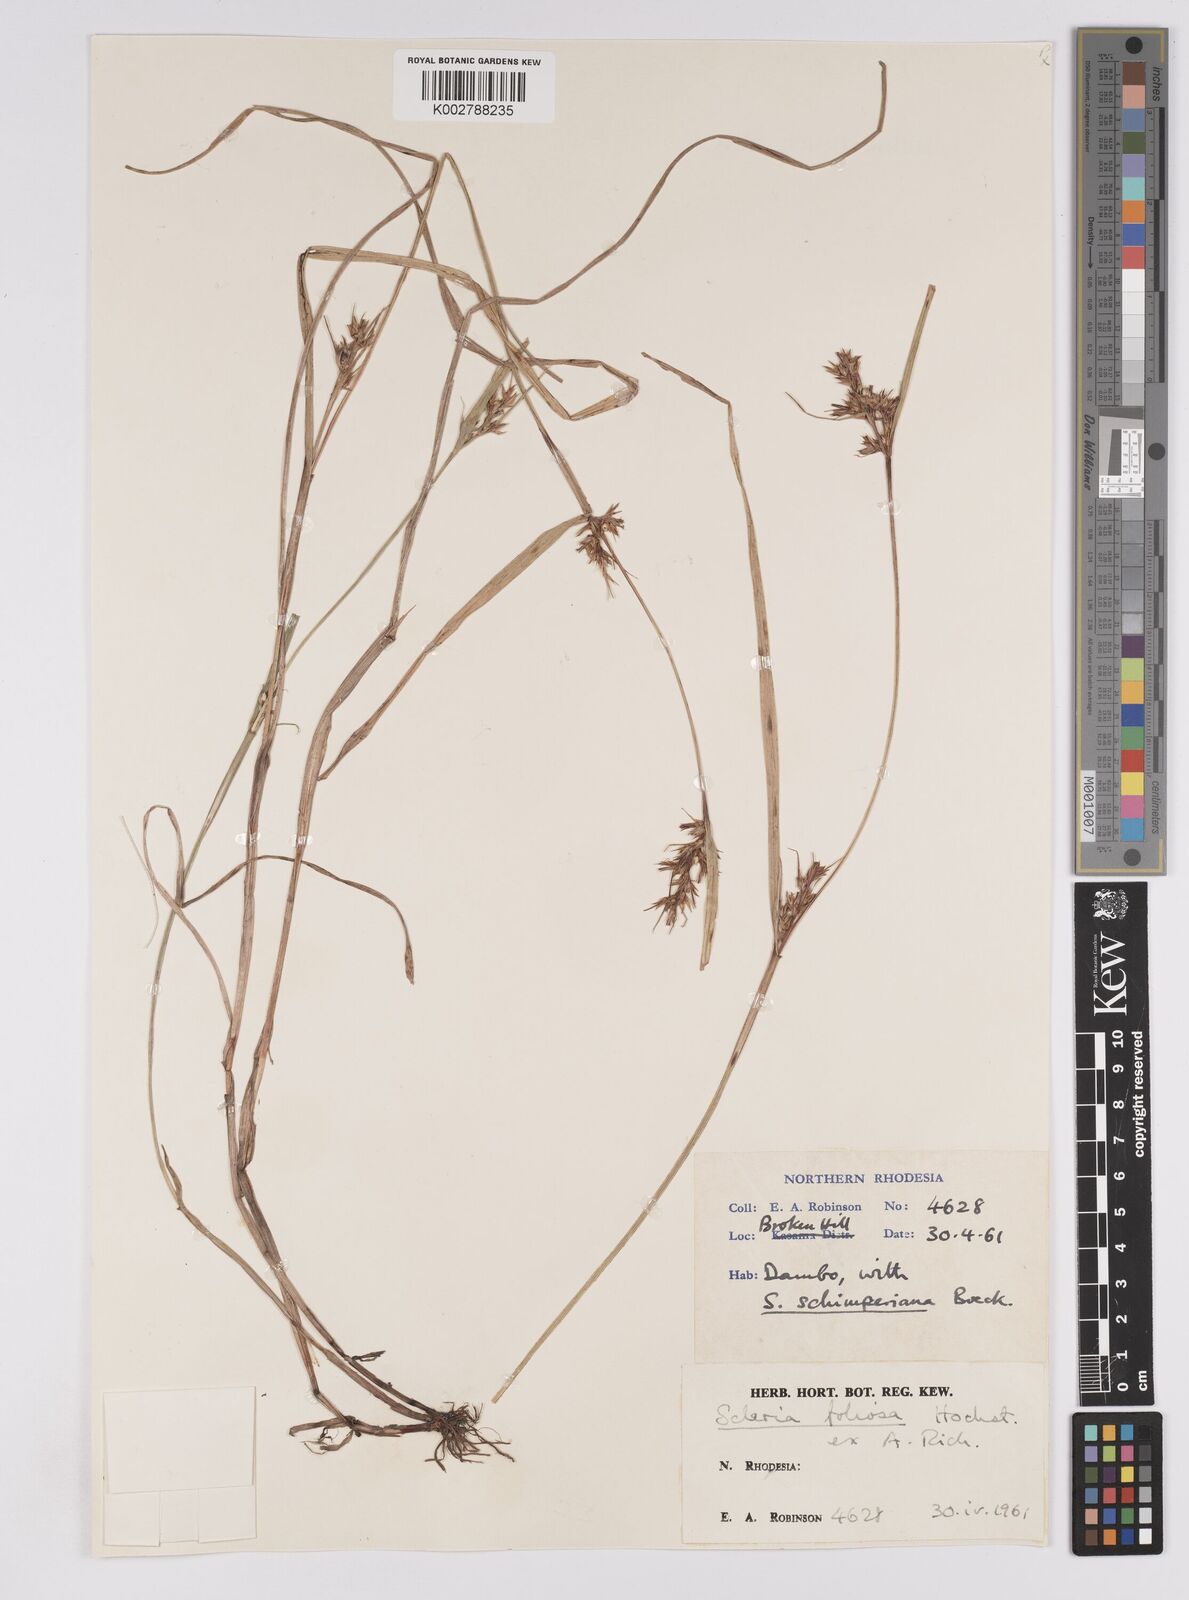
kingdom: Plantae
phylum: Tracheophyta
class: Liliopsida
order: Poales
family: Cyperaceae
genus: Scleria
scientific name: Scleria foliosa
